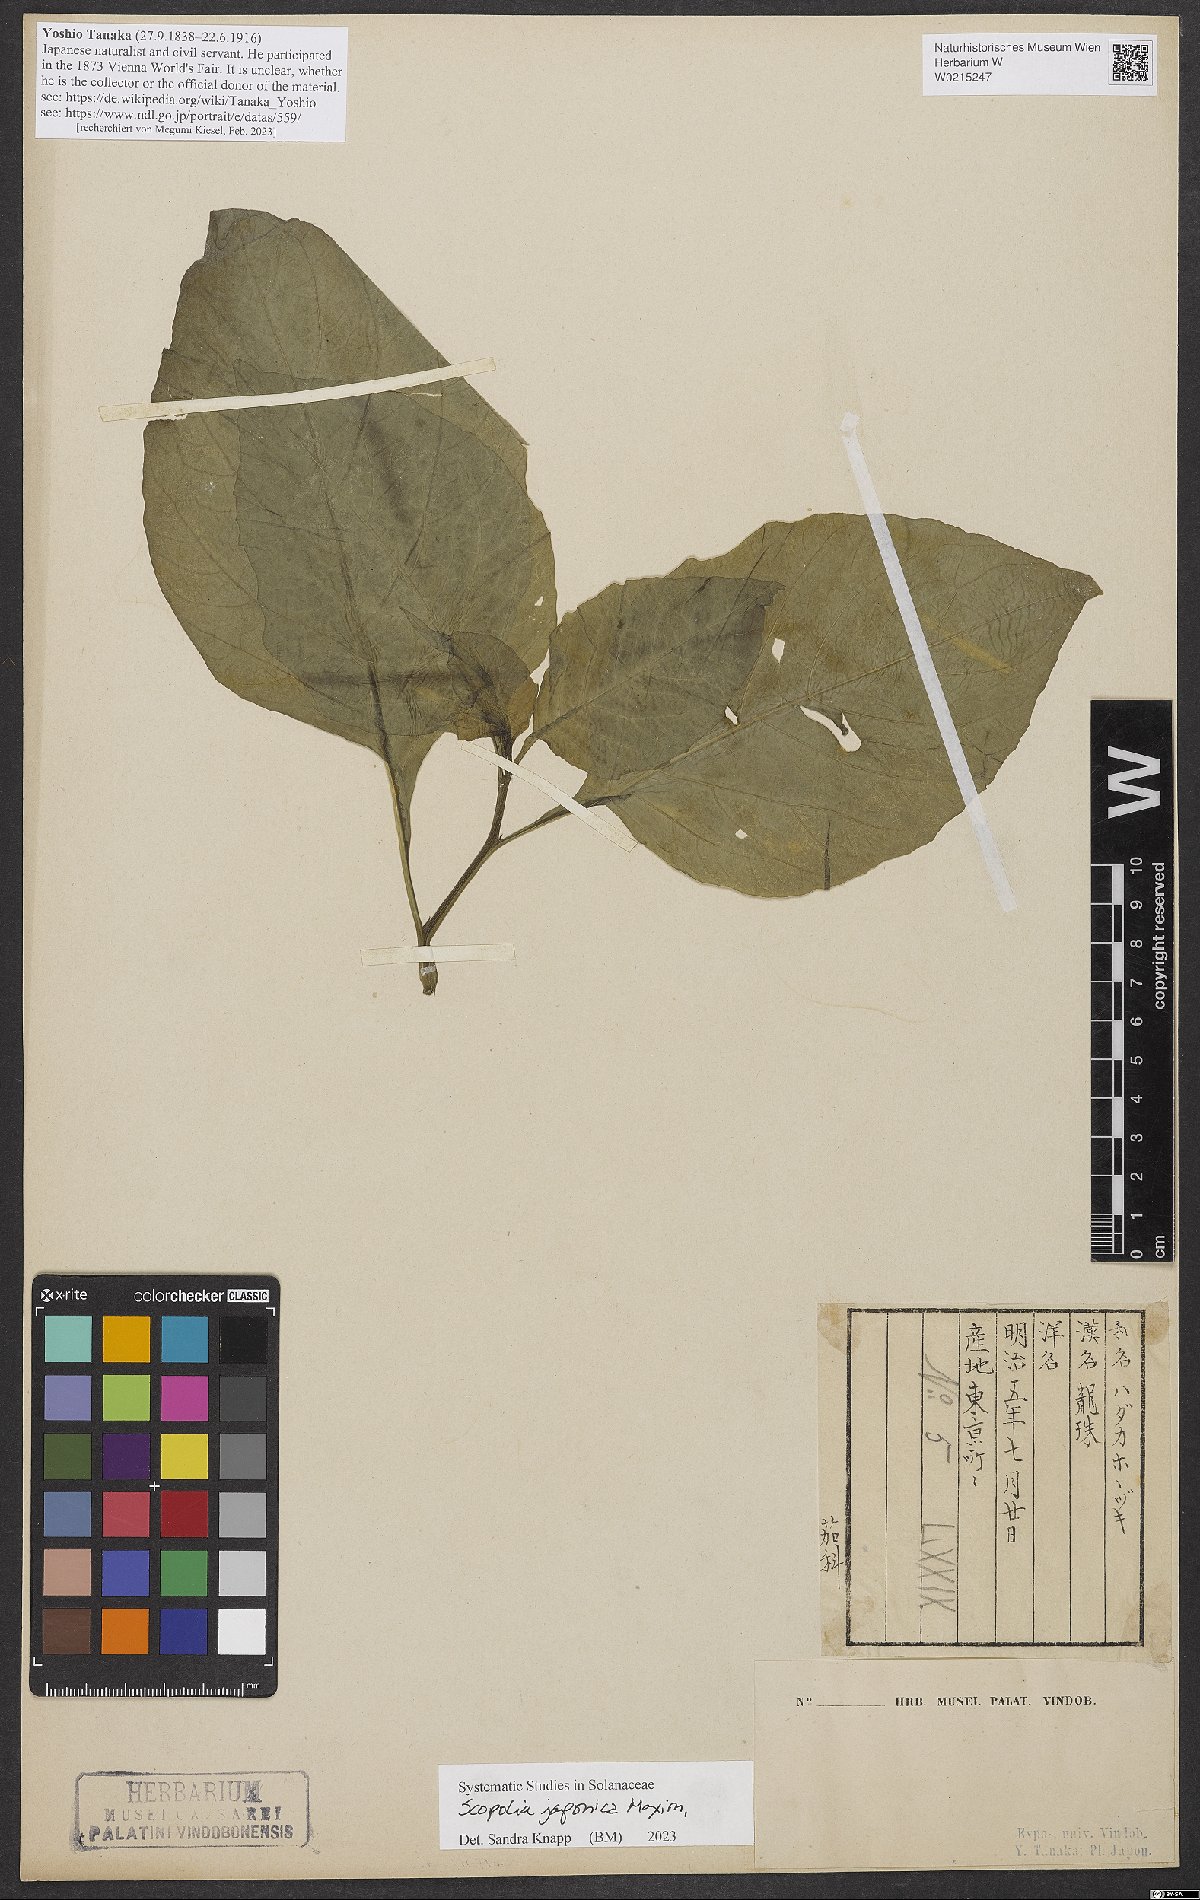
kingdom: Plantae
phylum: Tracheophyta
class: Magnoliopsida
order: Solanales
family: Solanaceae
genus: Scopolia
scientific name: Scopolia japonica
